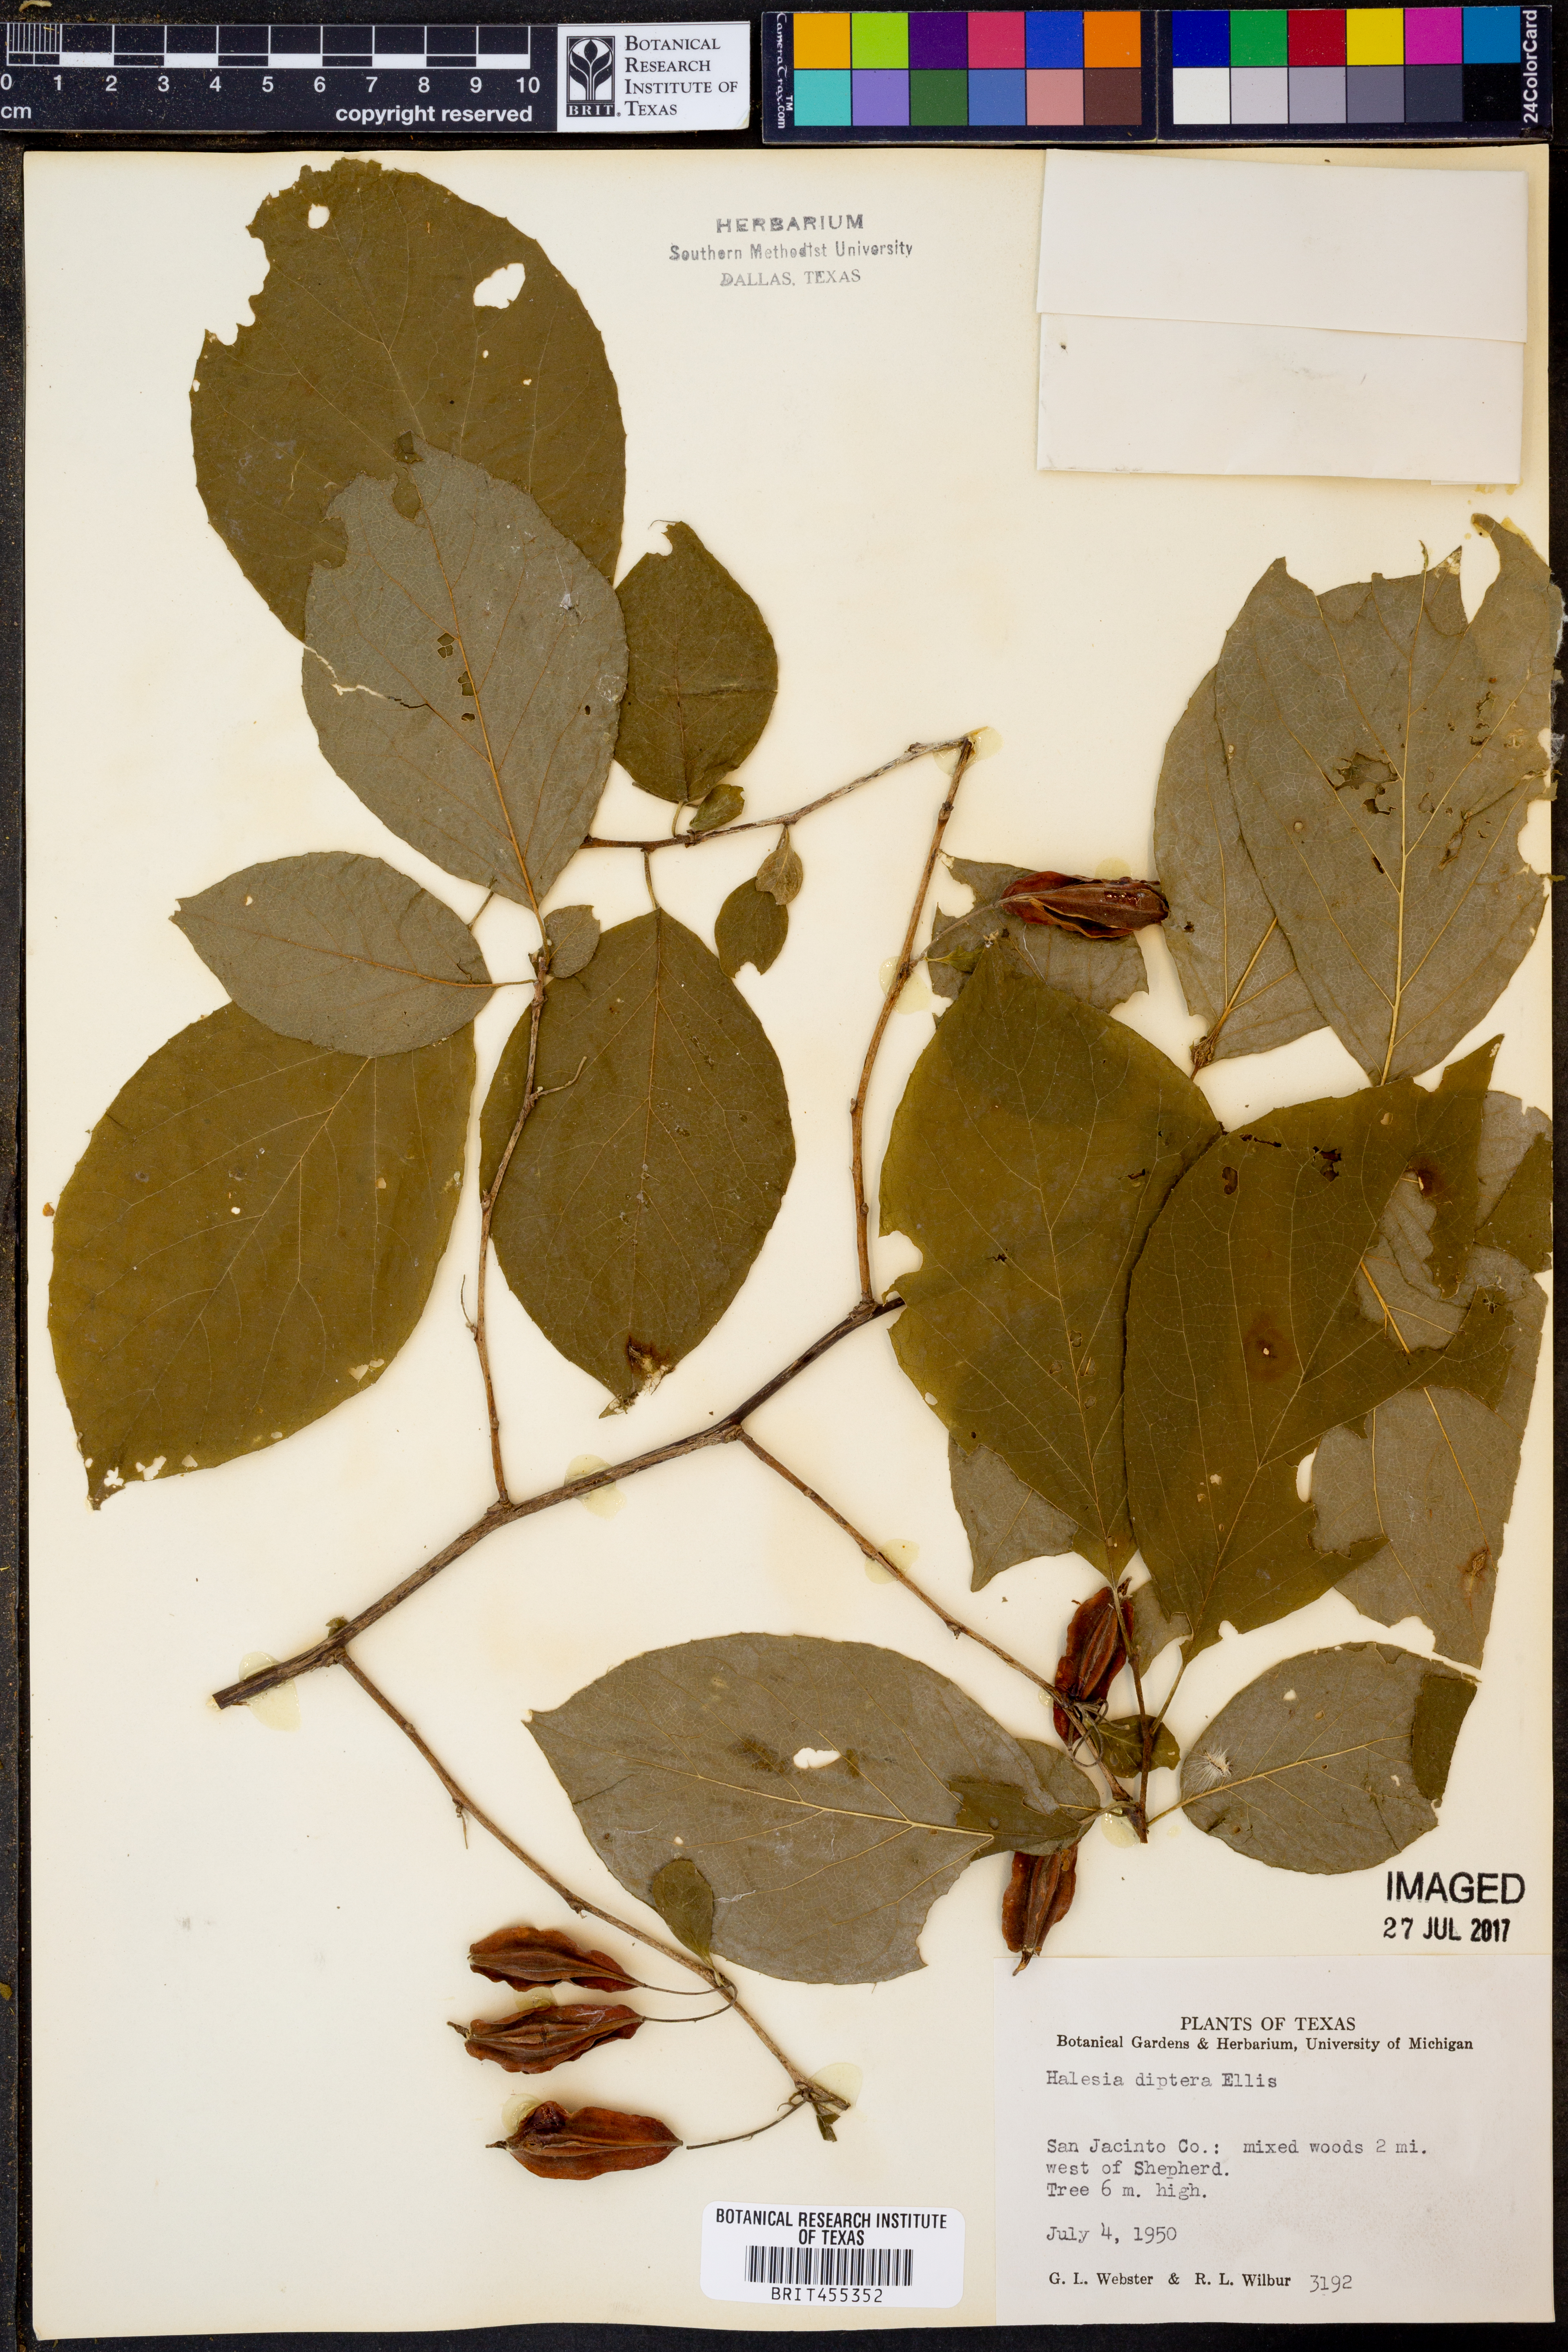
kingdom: Plantae
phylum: Tracheophyta
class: Magnoliopsida
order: Ericales
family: Styracaceae
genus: Halesia
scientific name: Halesia diptera
